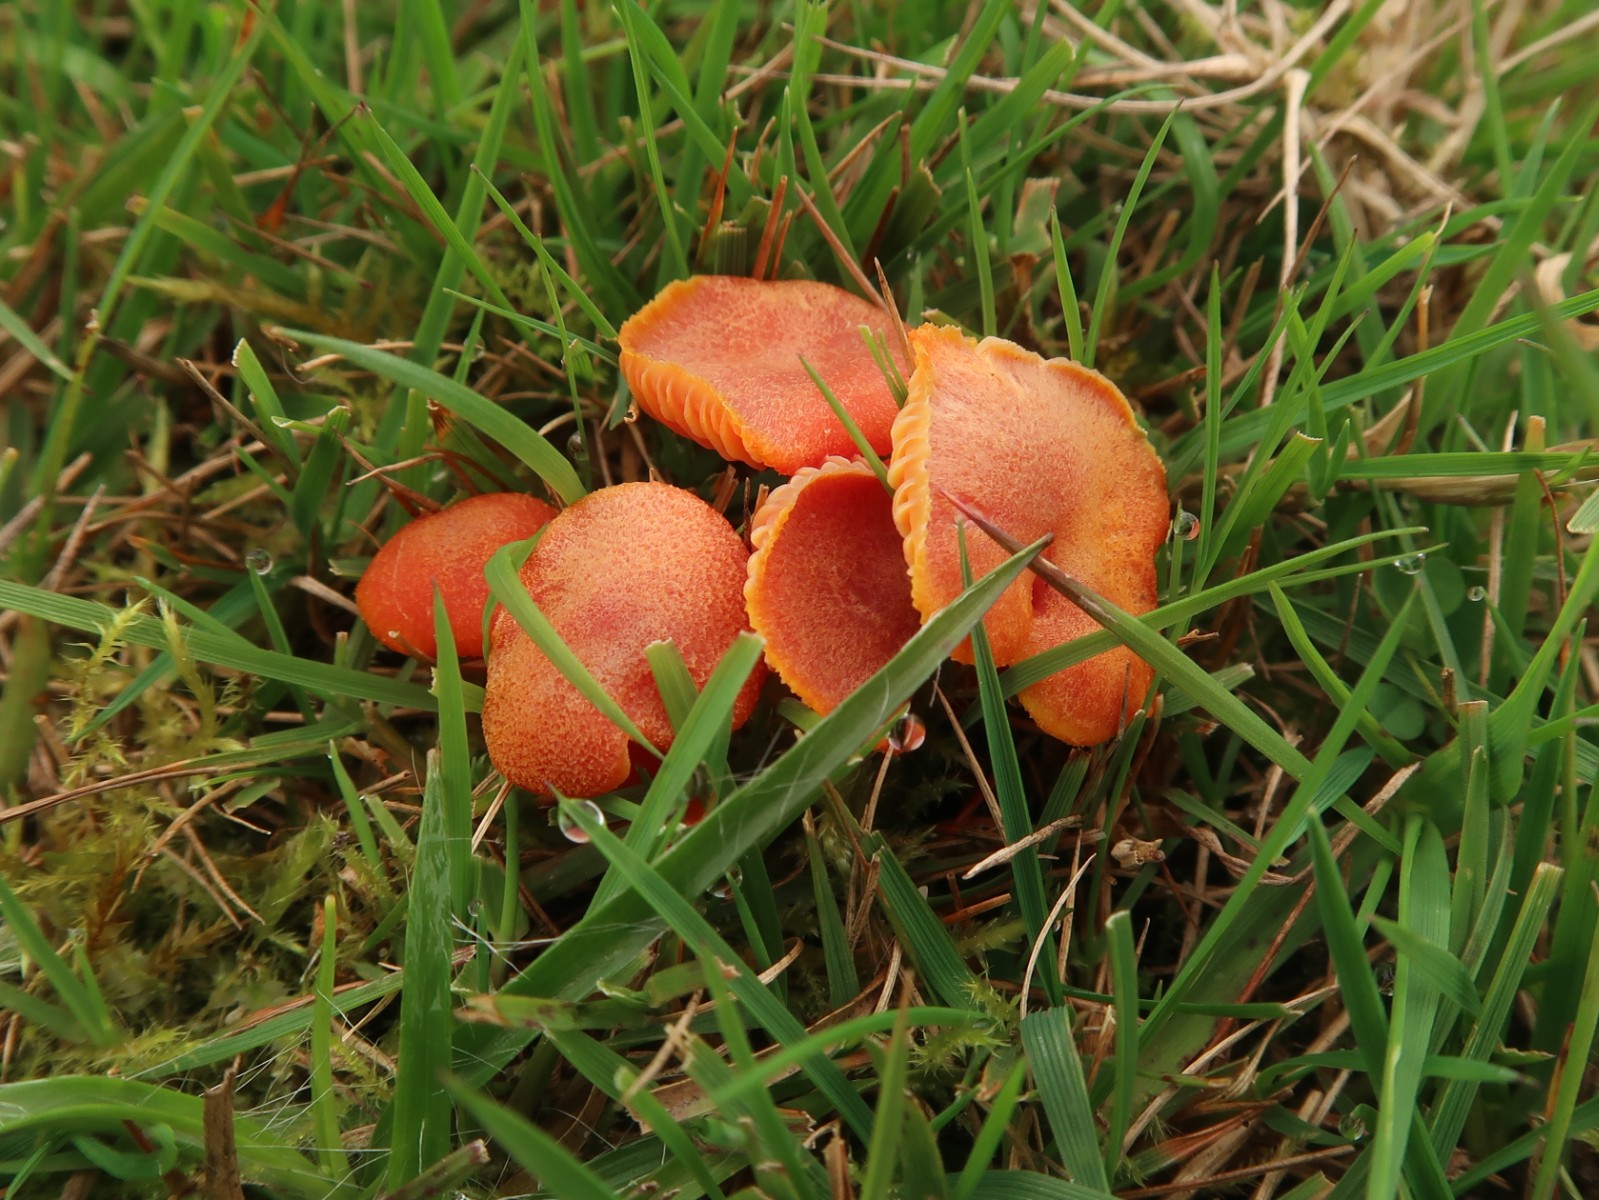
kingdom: Fungi
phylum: Basidiomycota
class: Agaricomycetes
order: Agaricales
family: Hygrophoraceae
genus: Hygrocybe
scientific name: Hygrocybe miniata
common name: mønje-vokshat
